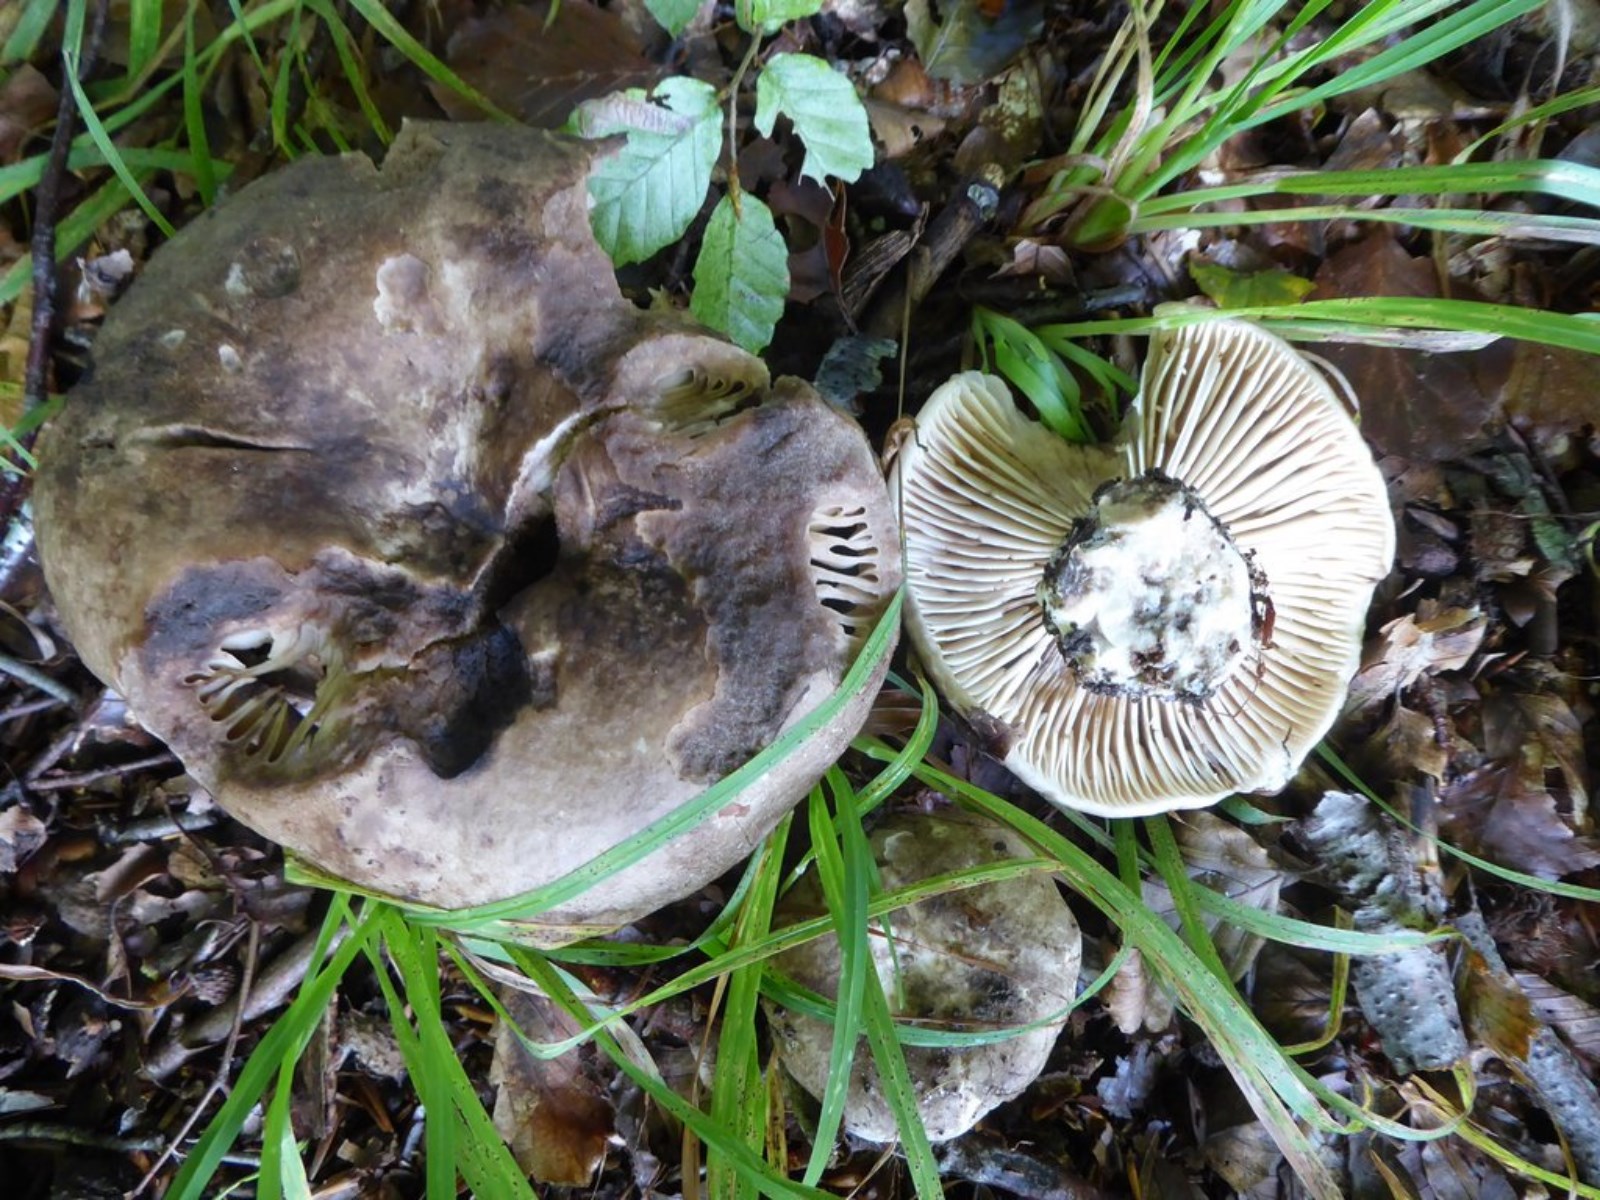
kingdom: Fungi
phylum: Basidiomycota
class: Agaricomycetes
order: Russulales
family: Russulaceae
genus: Russula
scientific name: Russula adusta
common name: sværtende skørhat
